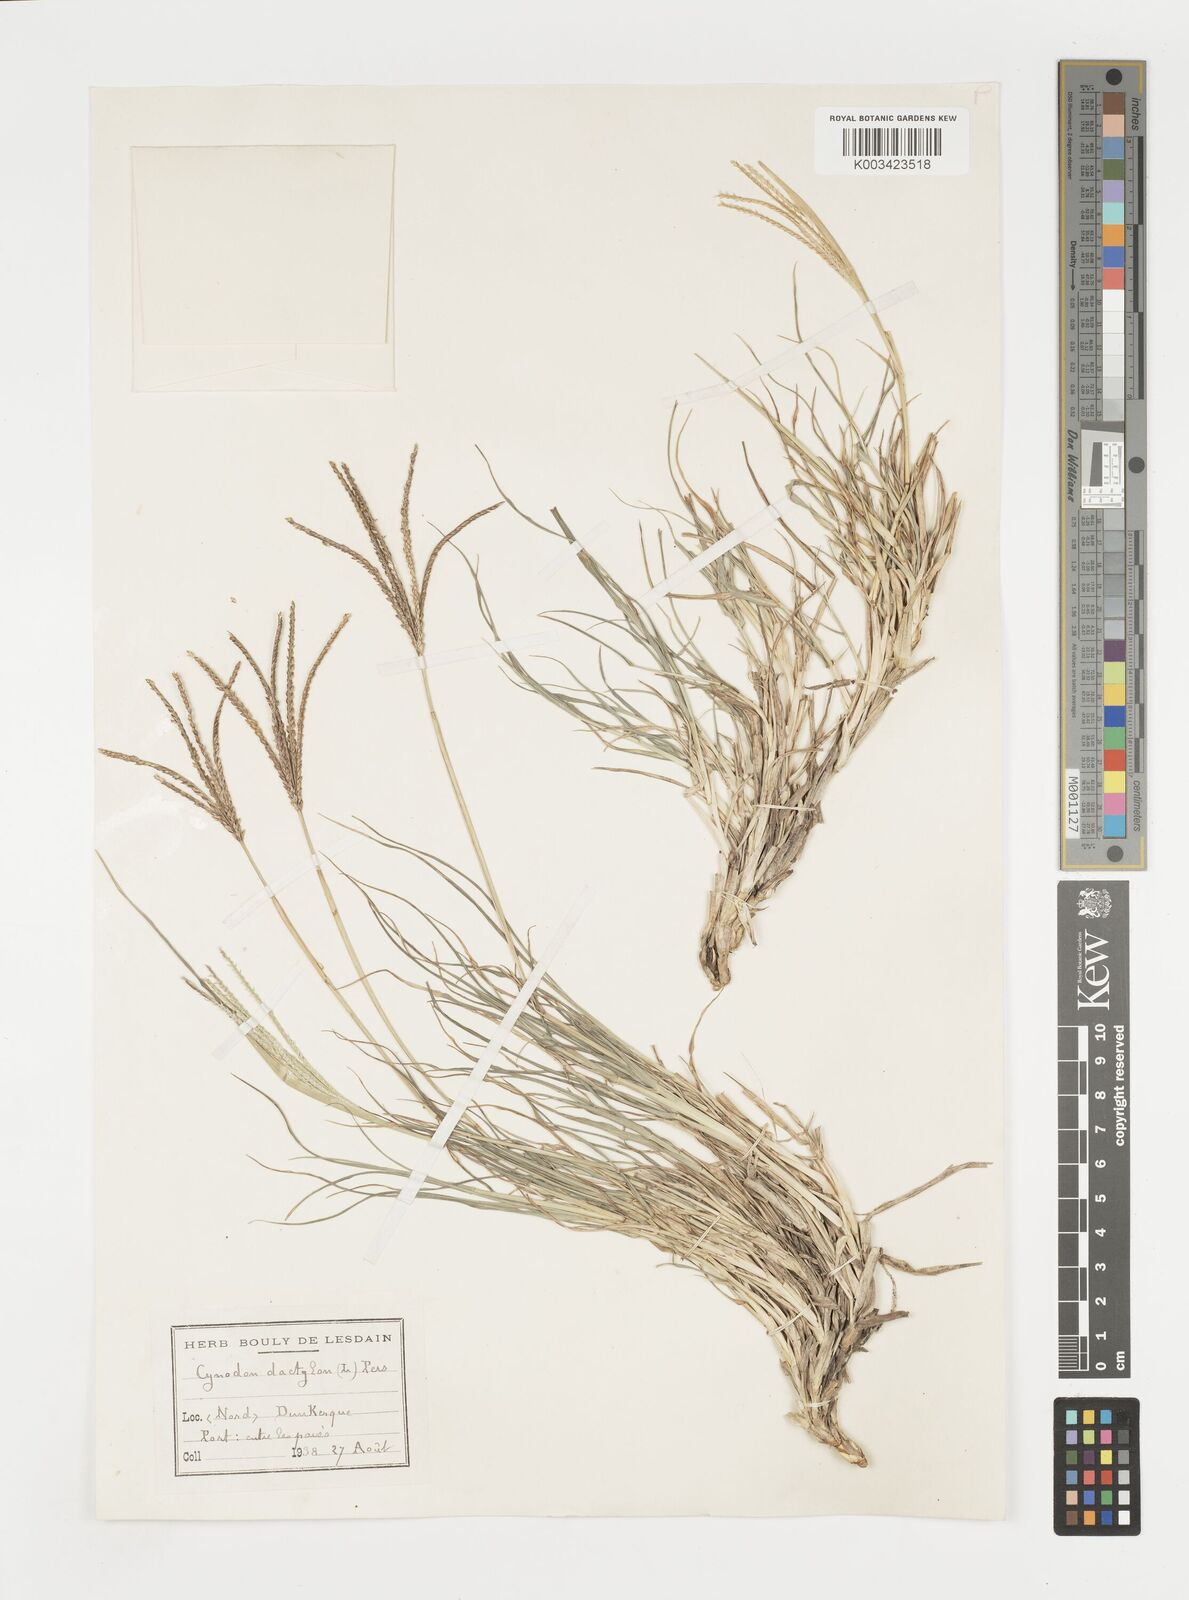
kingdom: Plantae
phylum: Tracheophyta
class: Liliopsida
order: Poales
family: Poaceae
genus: Cynodon
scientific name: Cynodon dactylon
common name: Bermuda grass
